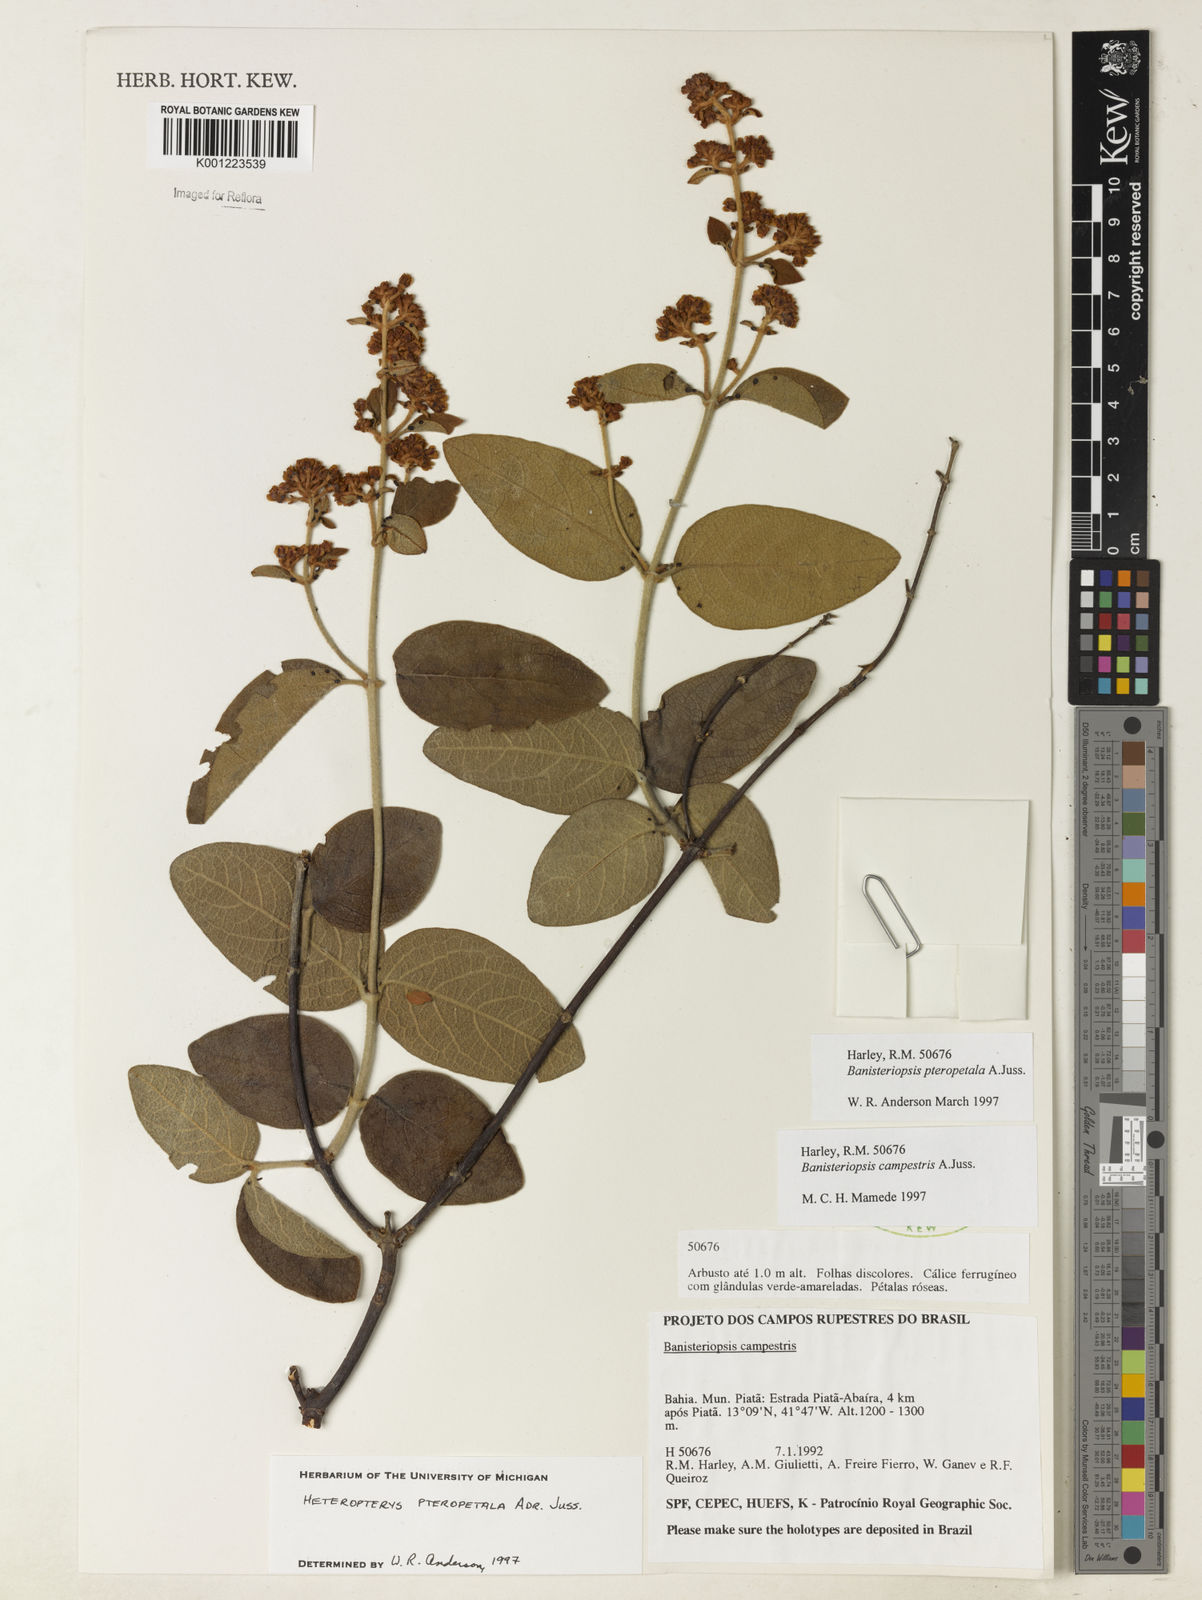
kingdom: Plantae
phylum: Tracheophyta
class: Magnoliopsida
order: Malpighiales
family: Malpighiaceae
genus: Heteropterys
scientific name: Heteropterys pteropetala
